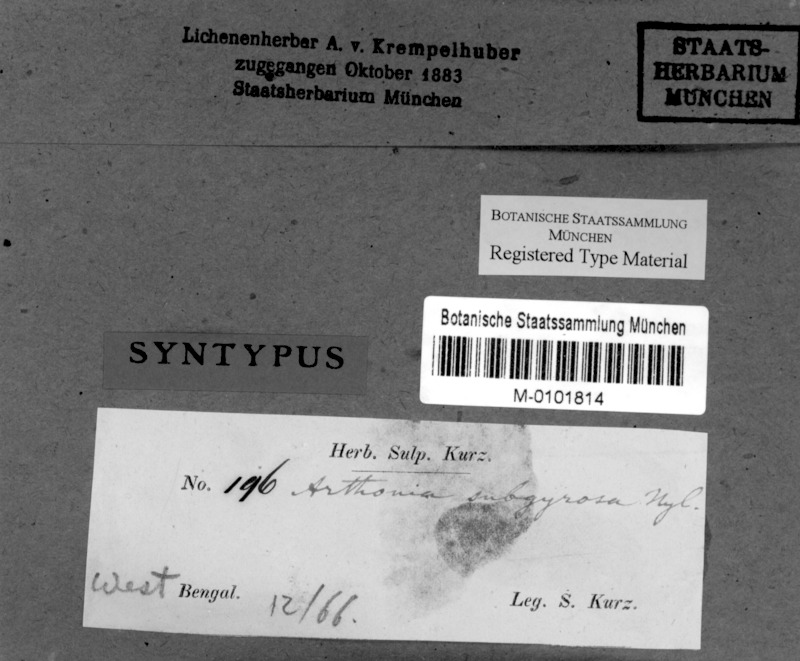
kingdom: Fungi
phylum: Ascomycota
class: Arthoniomycetes
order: Arthoniales
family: Arthoniaceae
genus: Arthonia
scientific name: Arthonia subgyrosa
